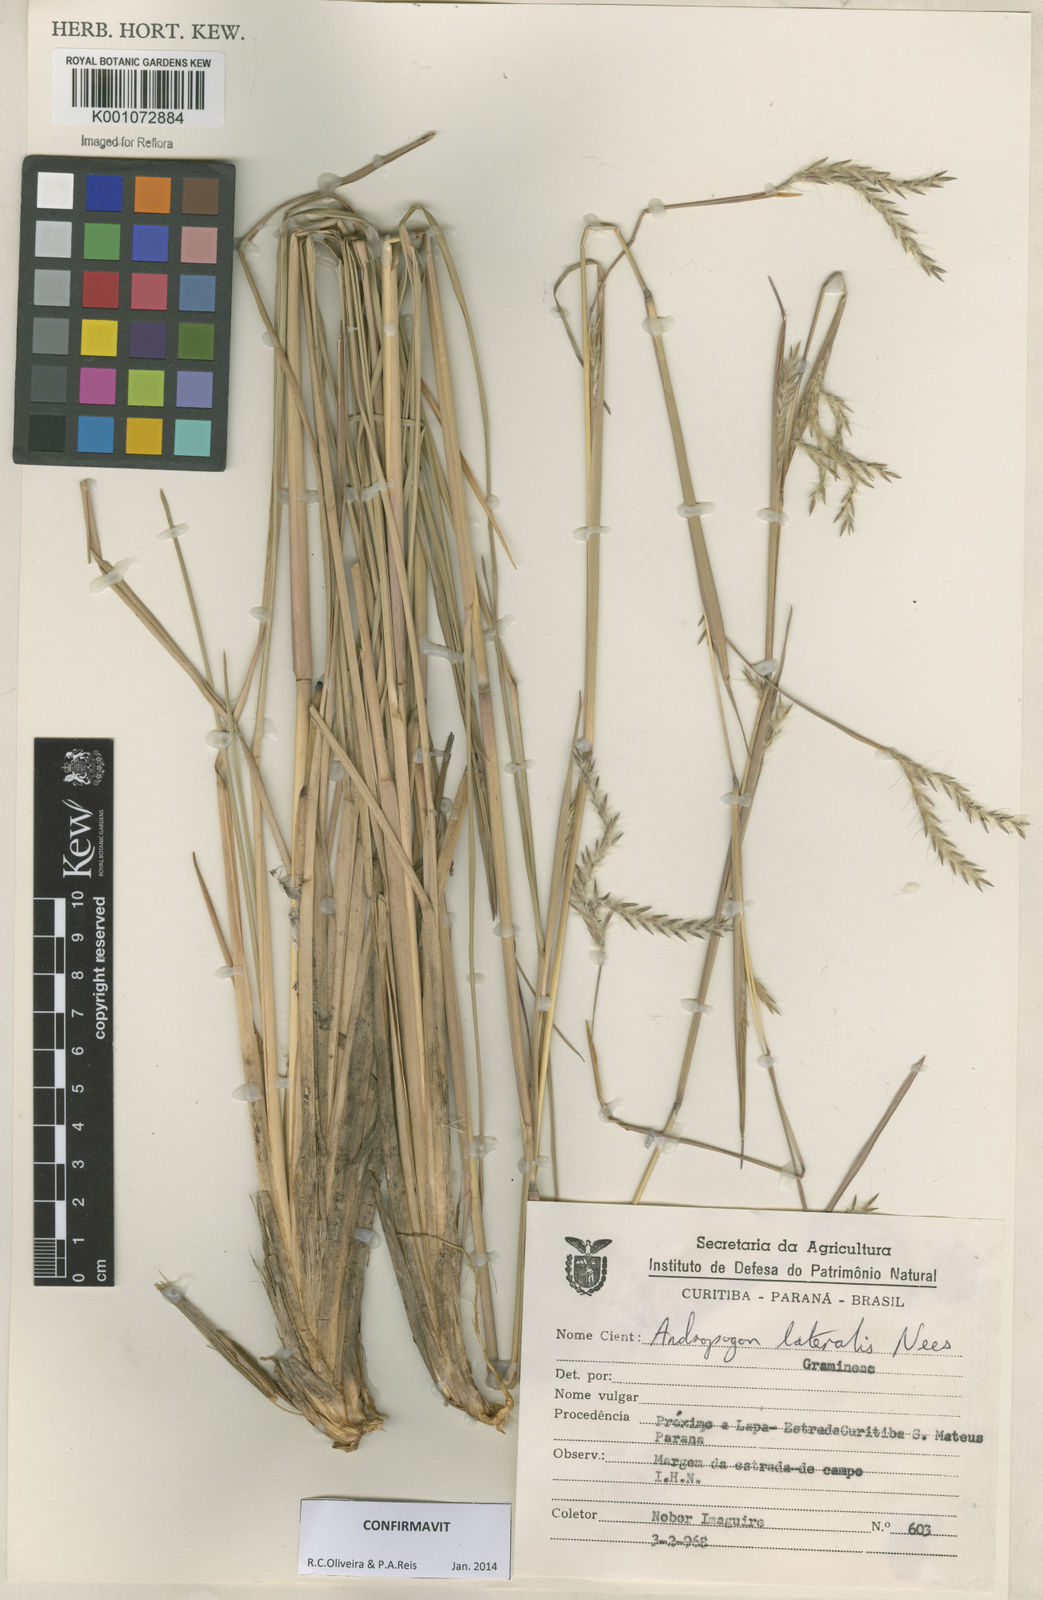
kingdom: Plantae
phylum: Tracheophyta
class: Liliopsida
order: Poales
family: Poaceae
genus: Andropogon
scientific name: Andropogon lateralis
